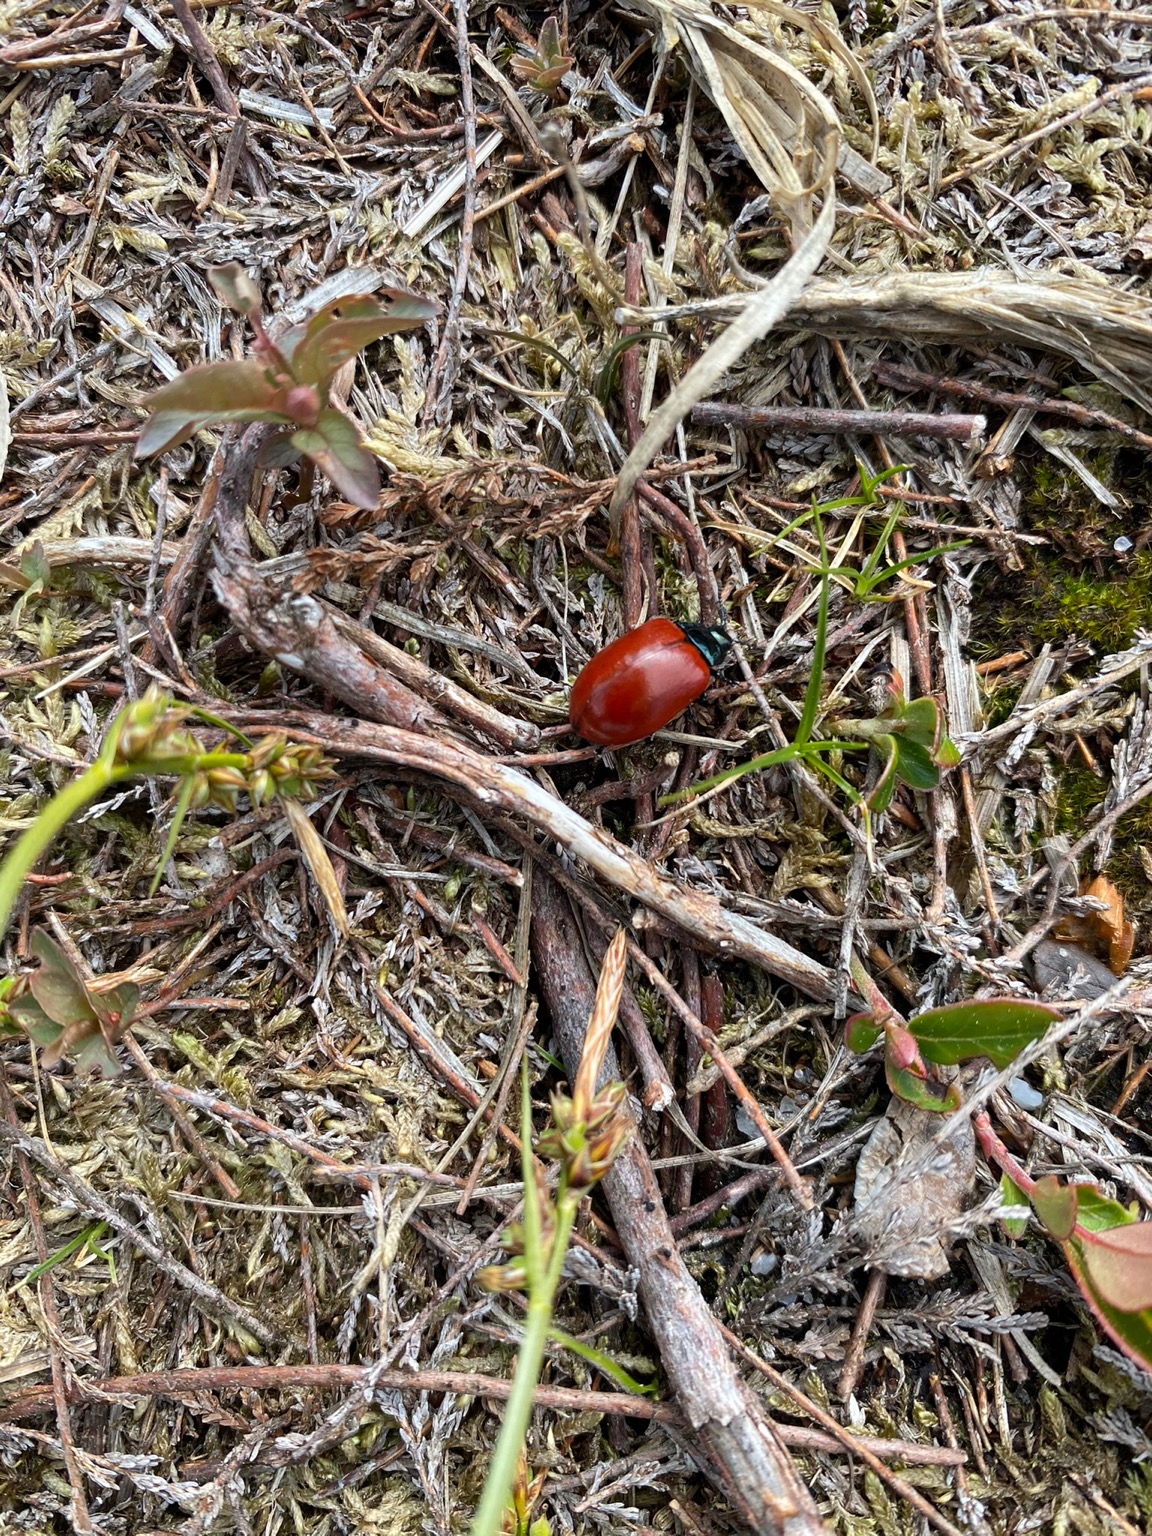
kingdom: Animalia
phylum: Arthropoda
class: Insecta
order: Coleoptera
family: Chrysomelidae
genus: Chrysomela
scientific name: Chrysomela populi
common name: Poppelbladbille
